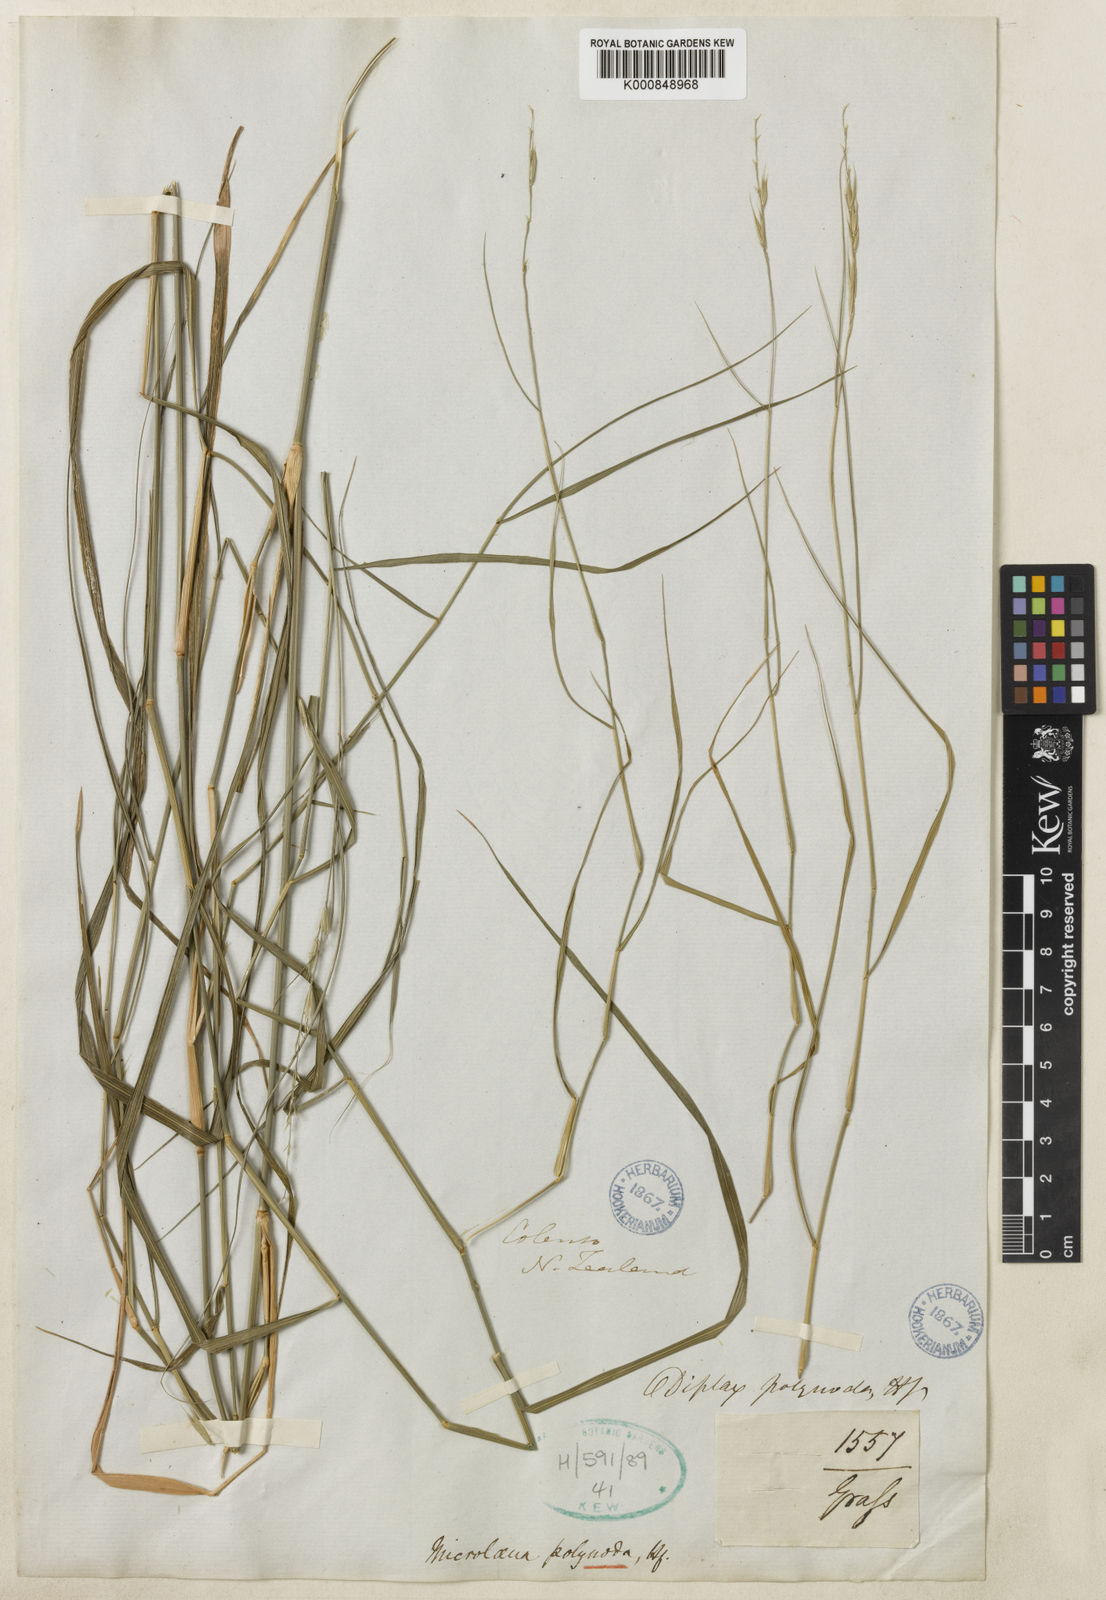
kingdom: Plantae
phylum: Tracheophyta
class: Liliopsida
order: Poales
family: Poaceae
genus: Ehrharta
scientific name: Ehrharta
